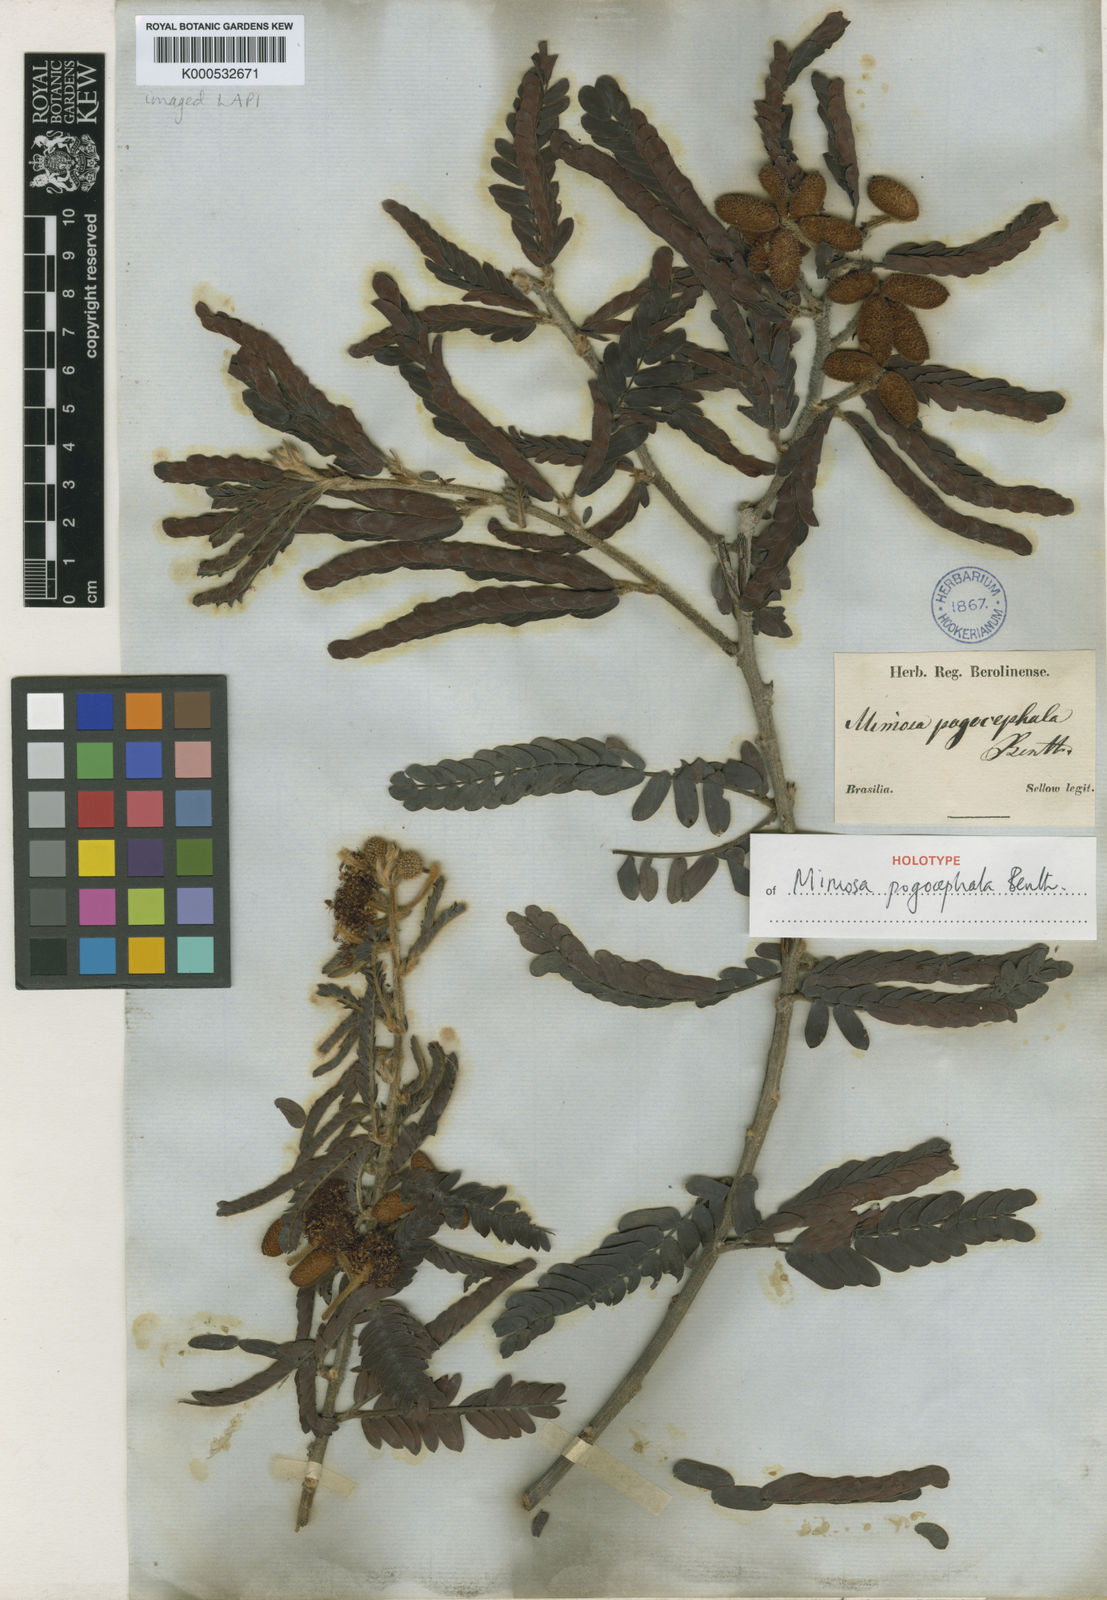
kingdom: Plantae
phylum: Tracheophyta
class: Magnoliopsida
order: Fabales
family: Fabaceae
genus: Mimosa
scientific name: Mimosa pogocephala
